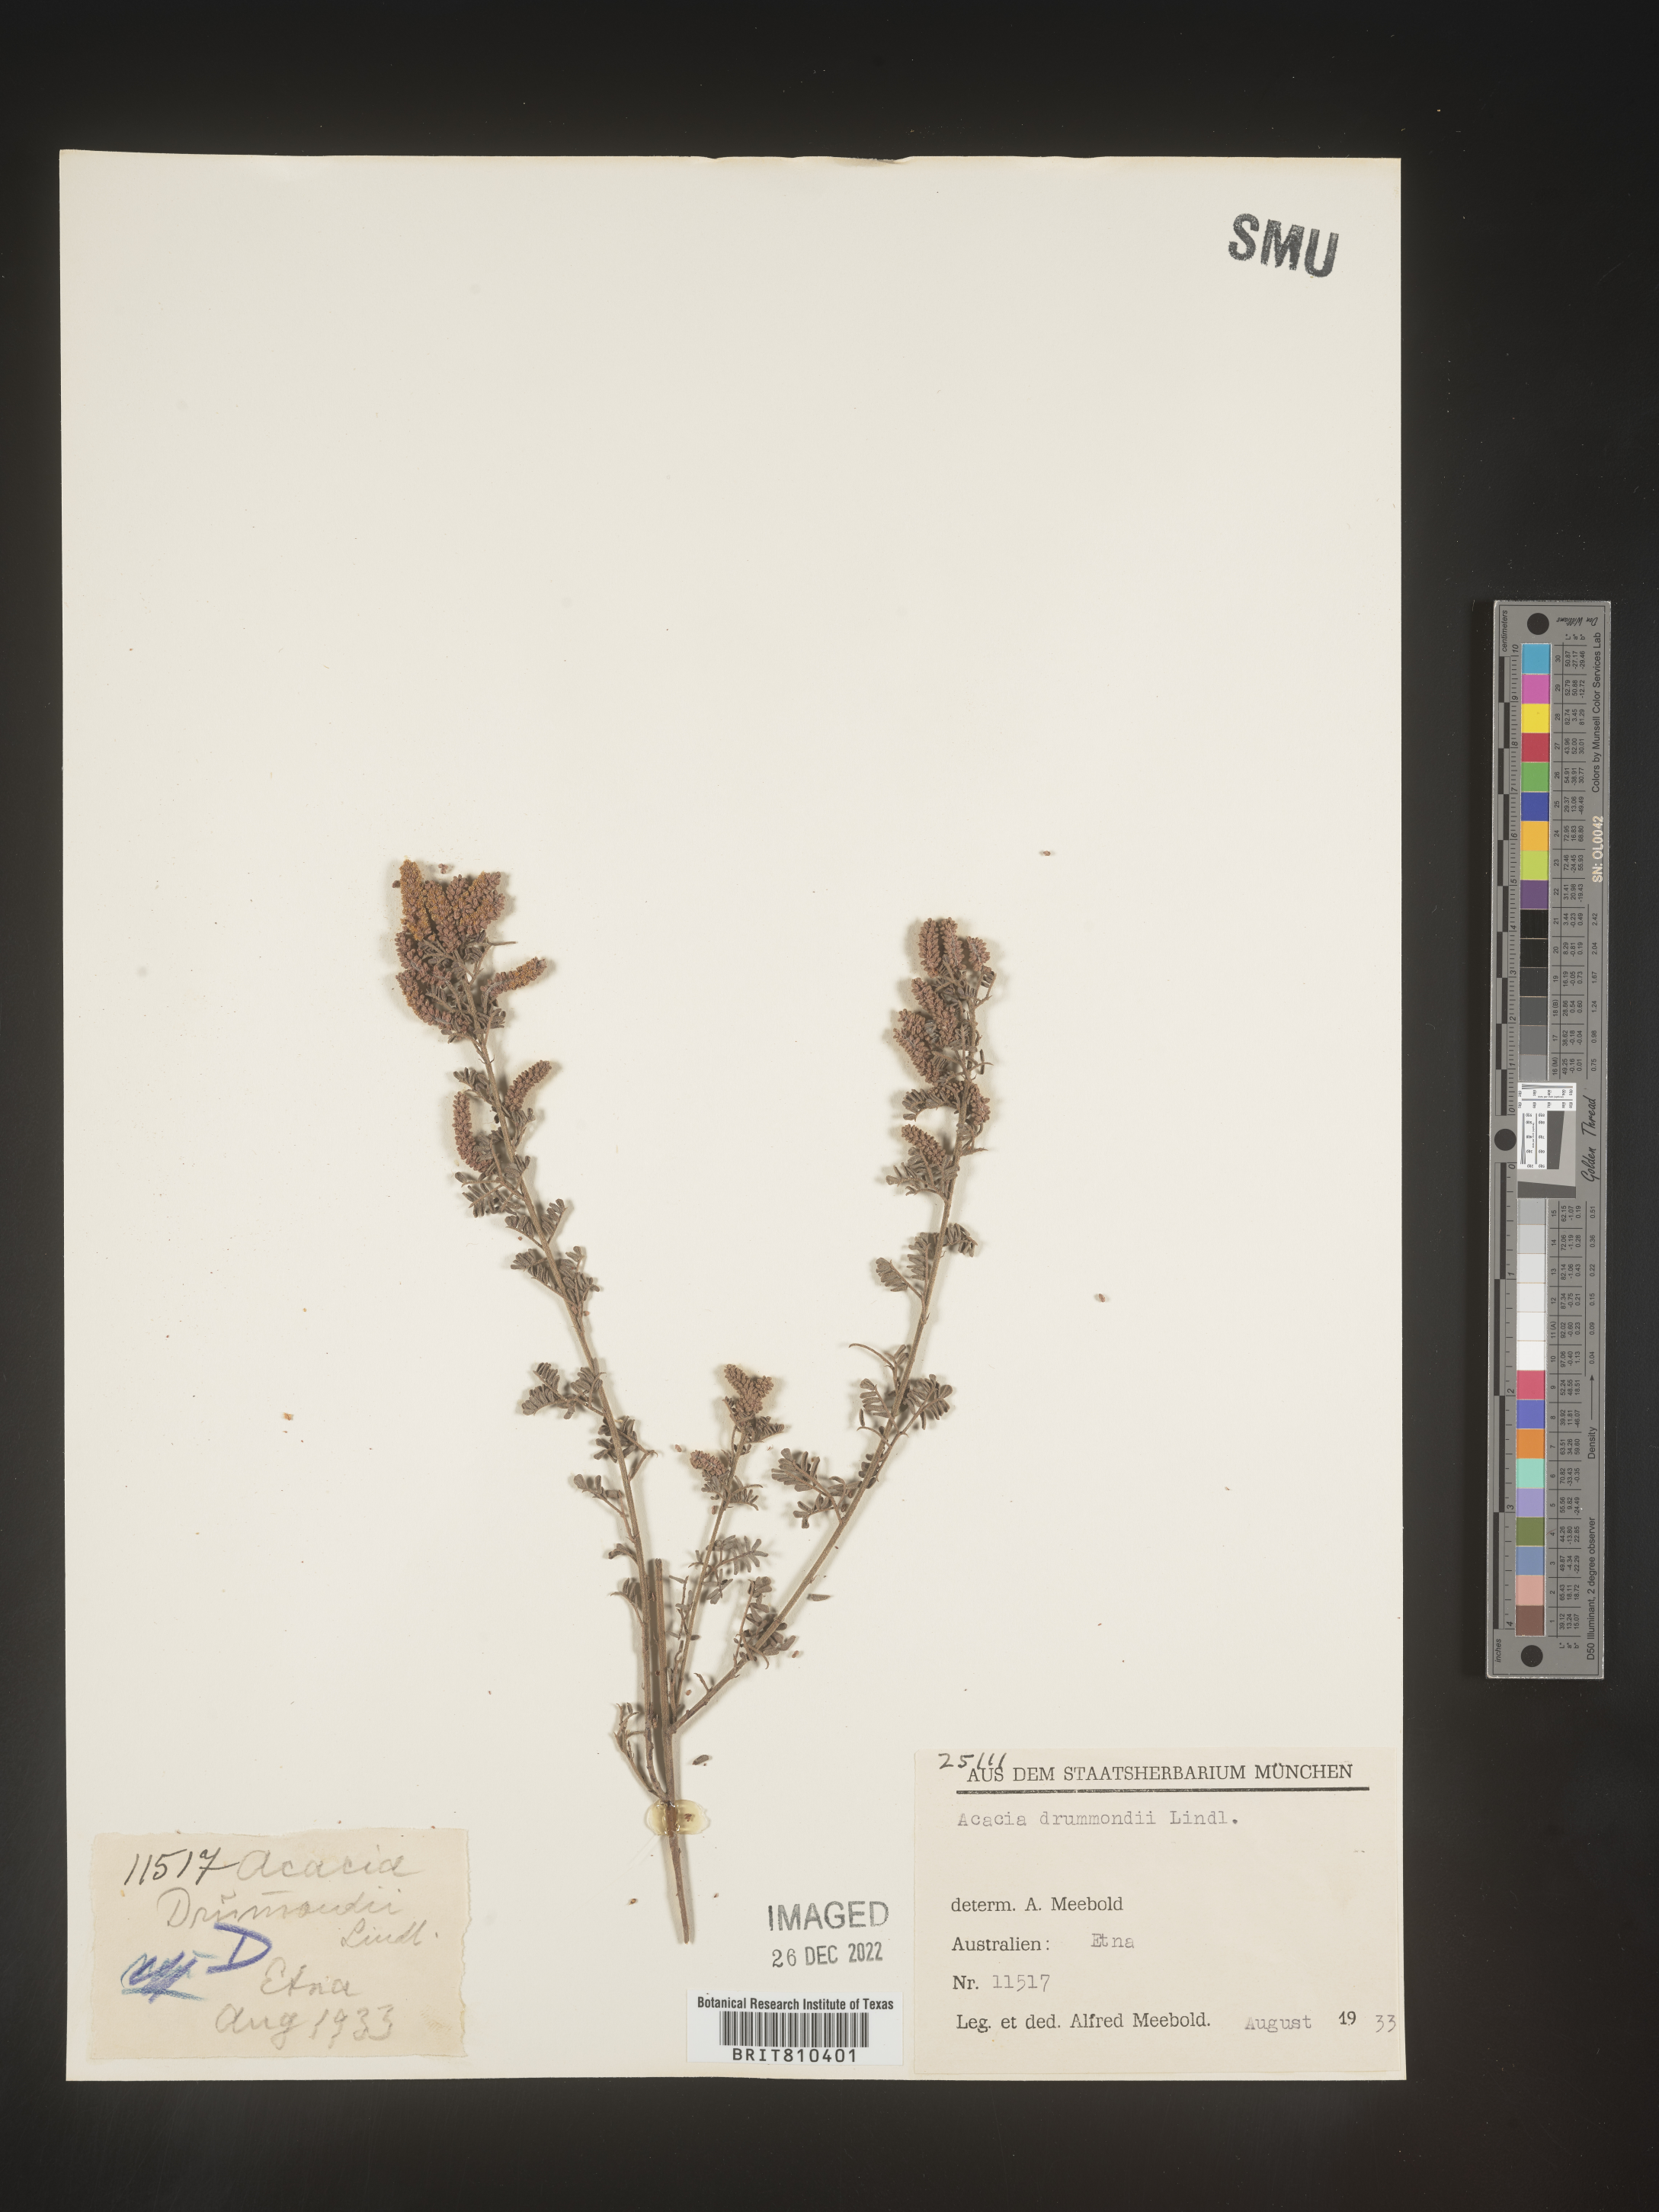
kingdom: Plantae
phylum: Tracheophyta
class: Magnoliopsida
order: Fabales
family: Fabaceae
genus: Acacia
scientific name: Acacia
